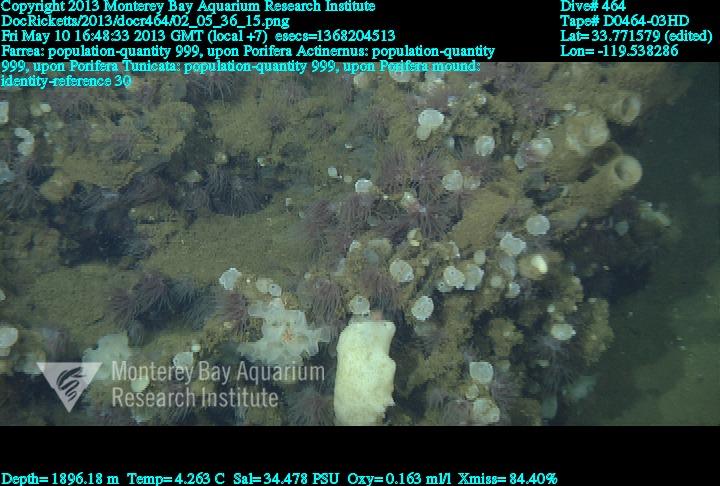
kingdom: Animalia
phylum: Porifera
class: Hexactinellida
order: Sceptrulophora
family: Farreidae
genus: Farrea
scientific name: Farrea
